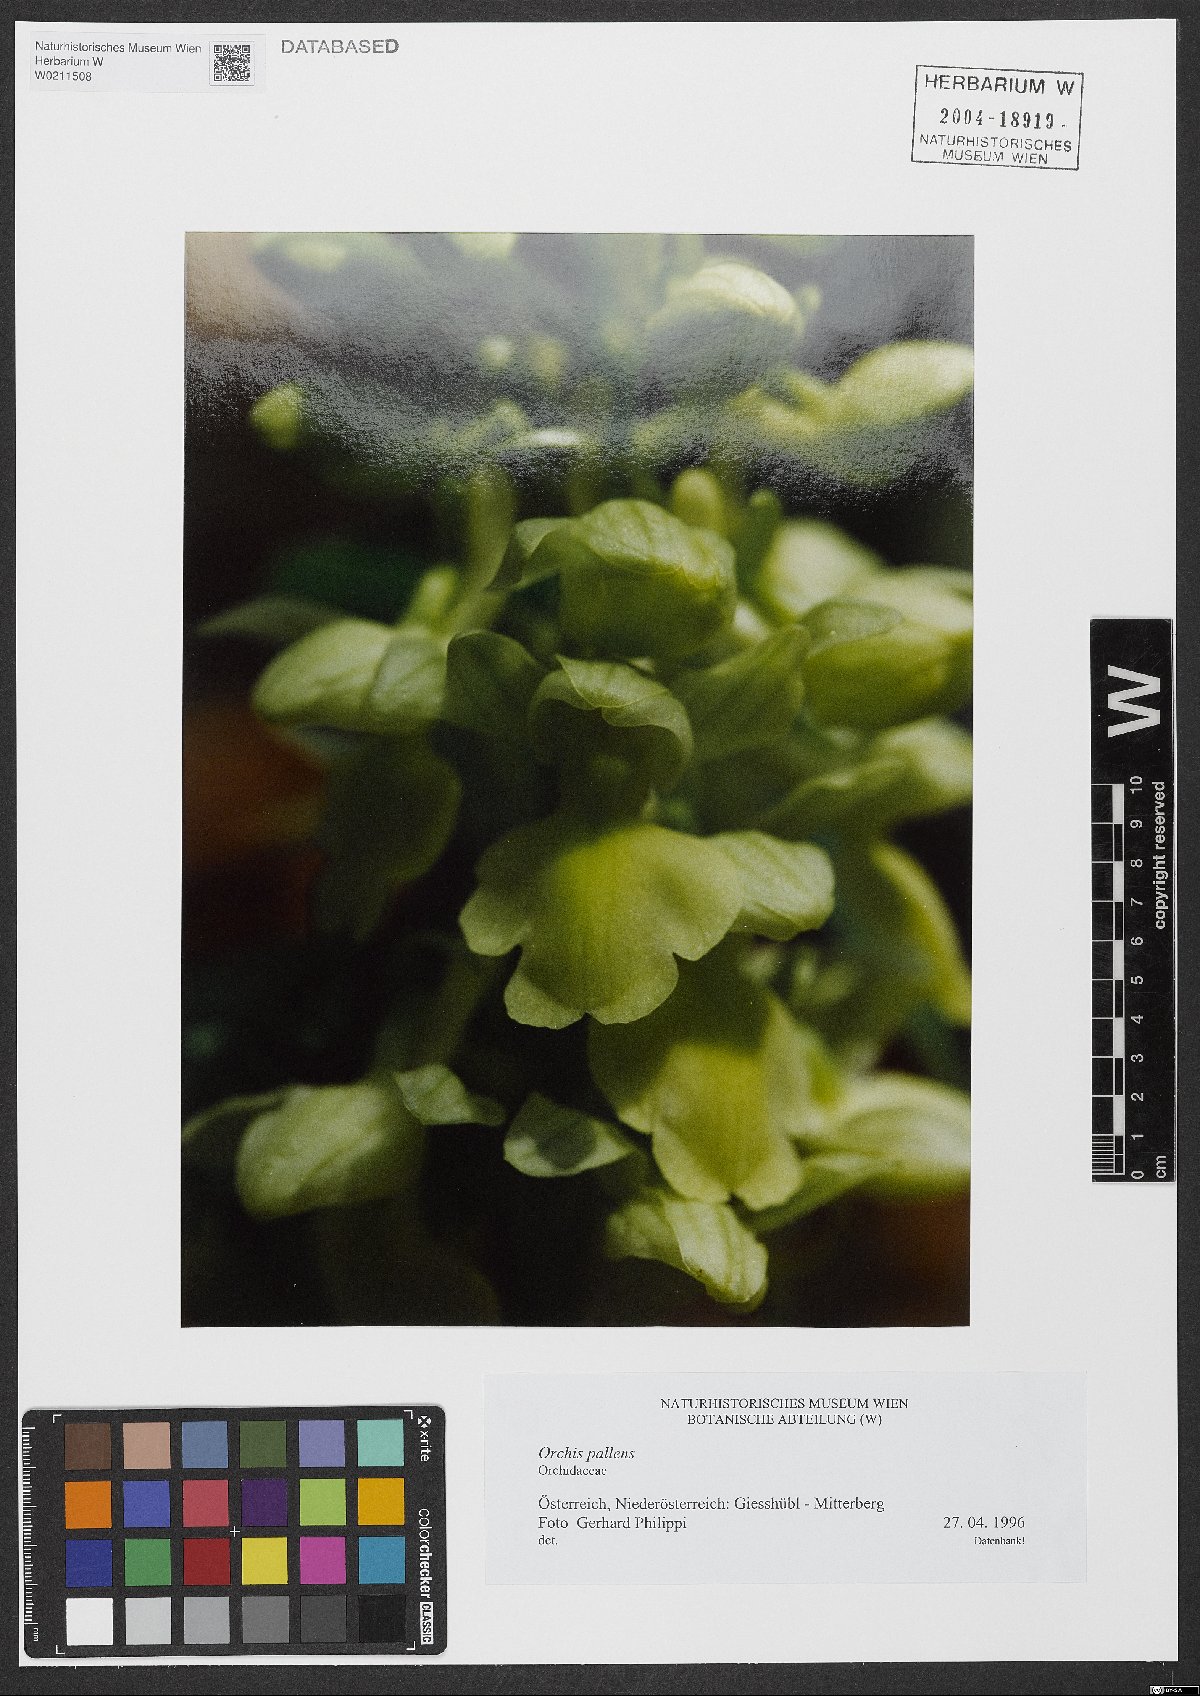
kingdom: Plantae
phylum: Tracheophyta
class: Liliopsida
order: Asparagales
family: Orchidaceae
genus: Orchis
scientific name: Orchis pallens
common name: Pale-flowered orchid
